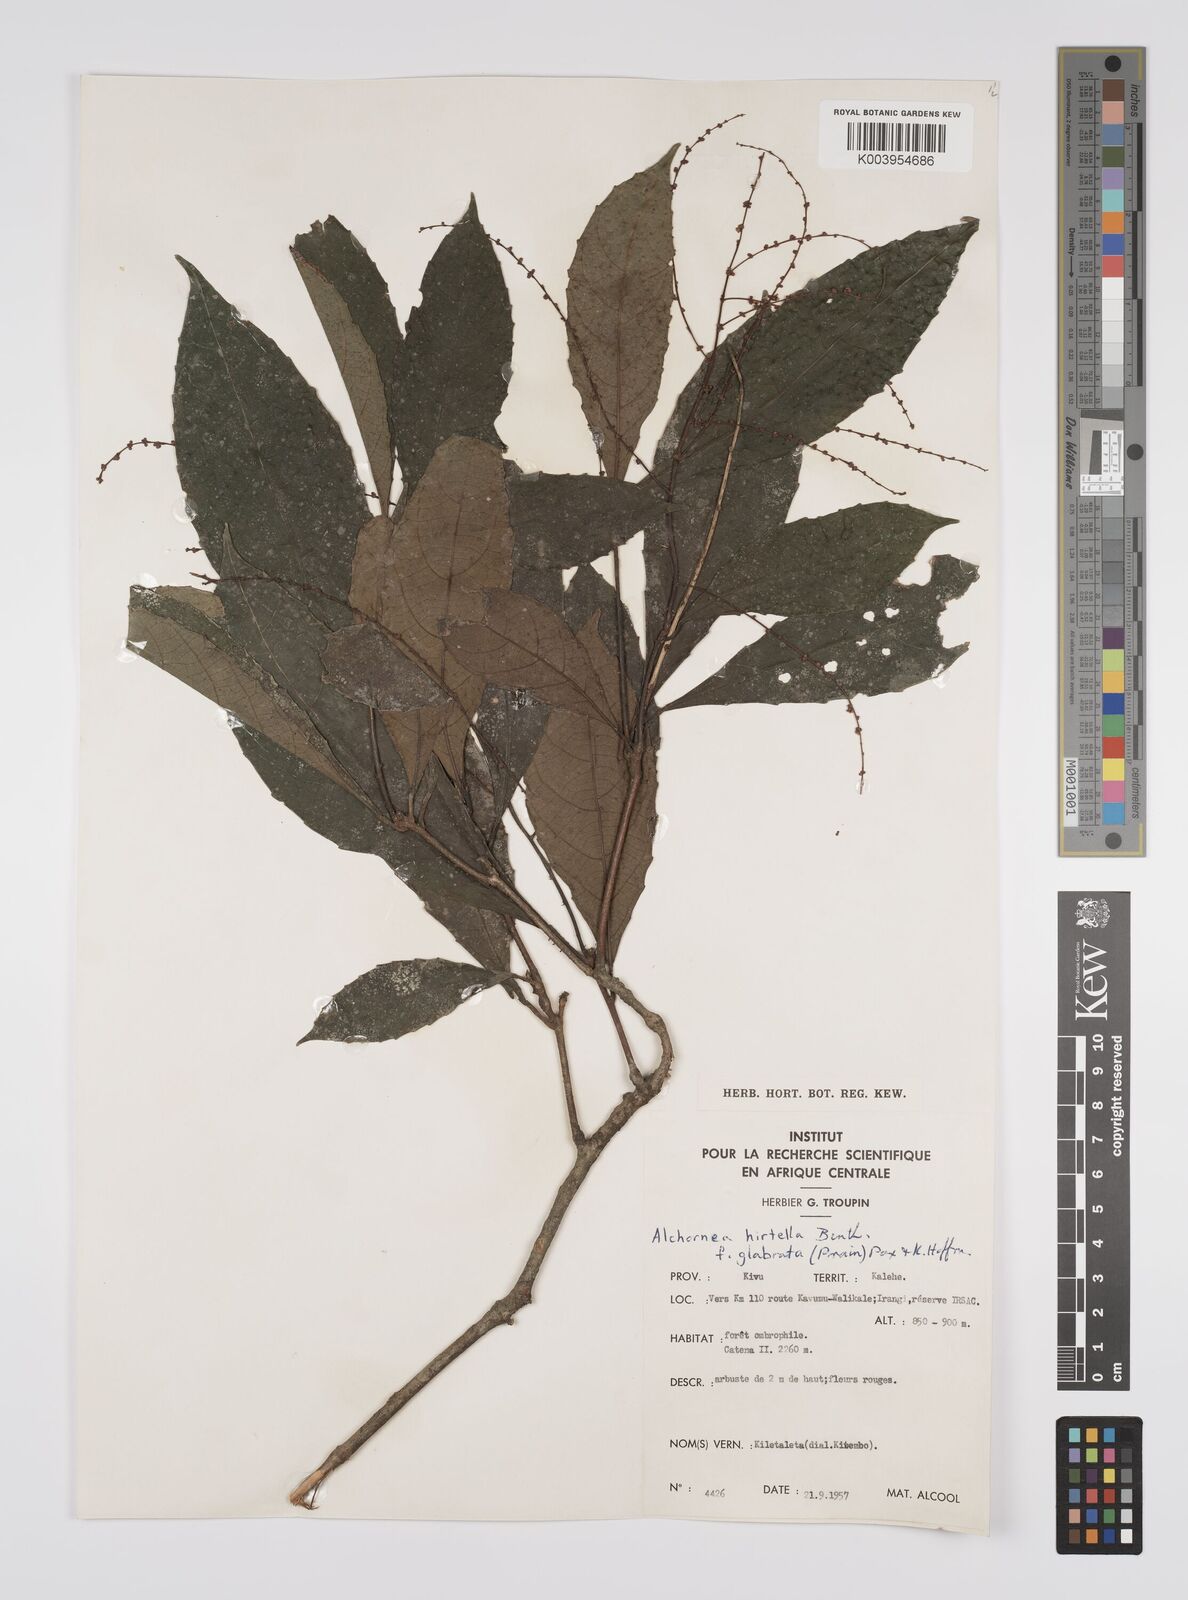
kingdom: Plantae
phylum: Tracheophyta
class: Magnoliopsida
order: Malpighiales
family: Euphorbiaceae
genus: Alchornea
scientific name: Alchornea hirtella
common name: Forest bead-string
